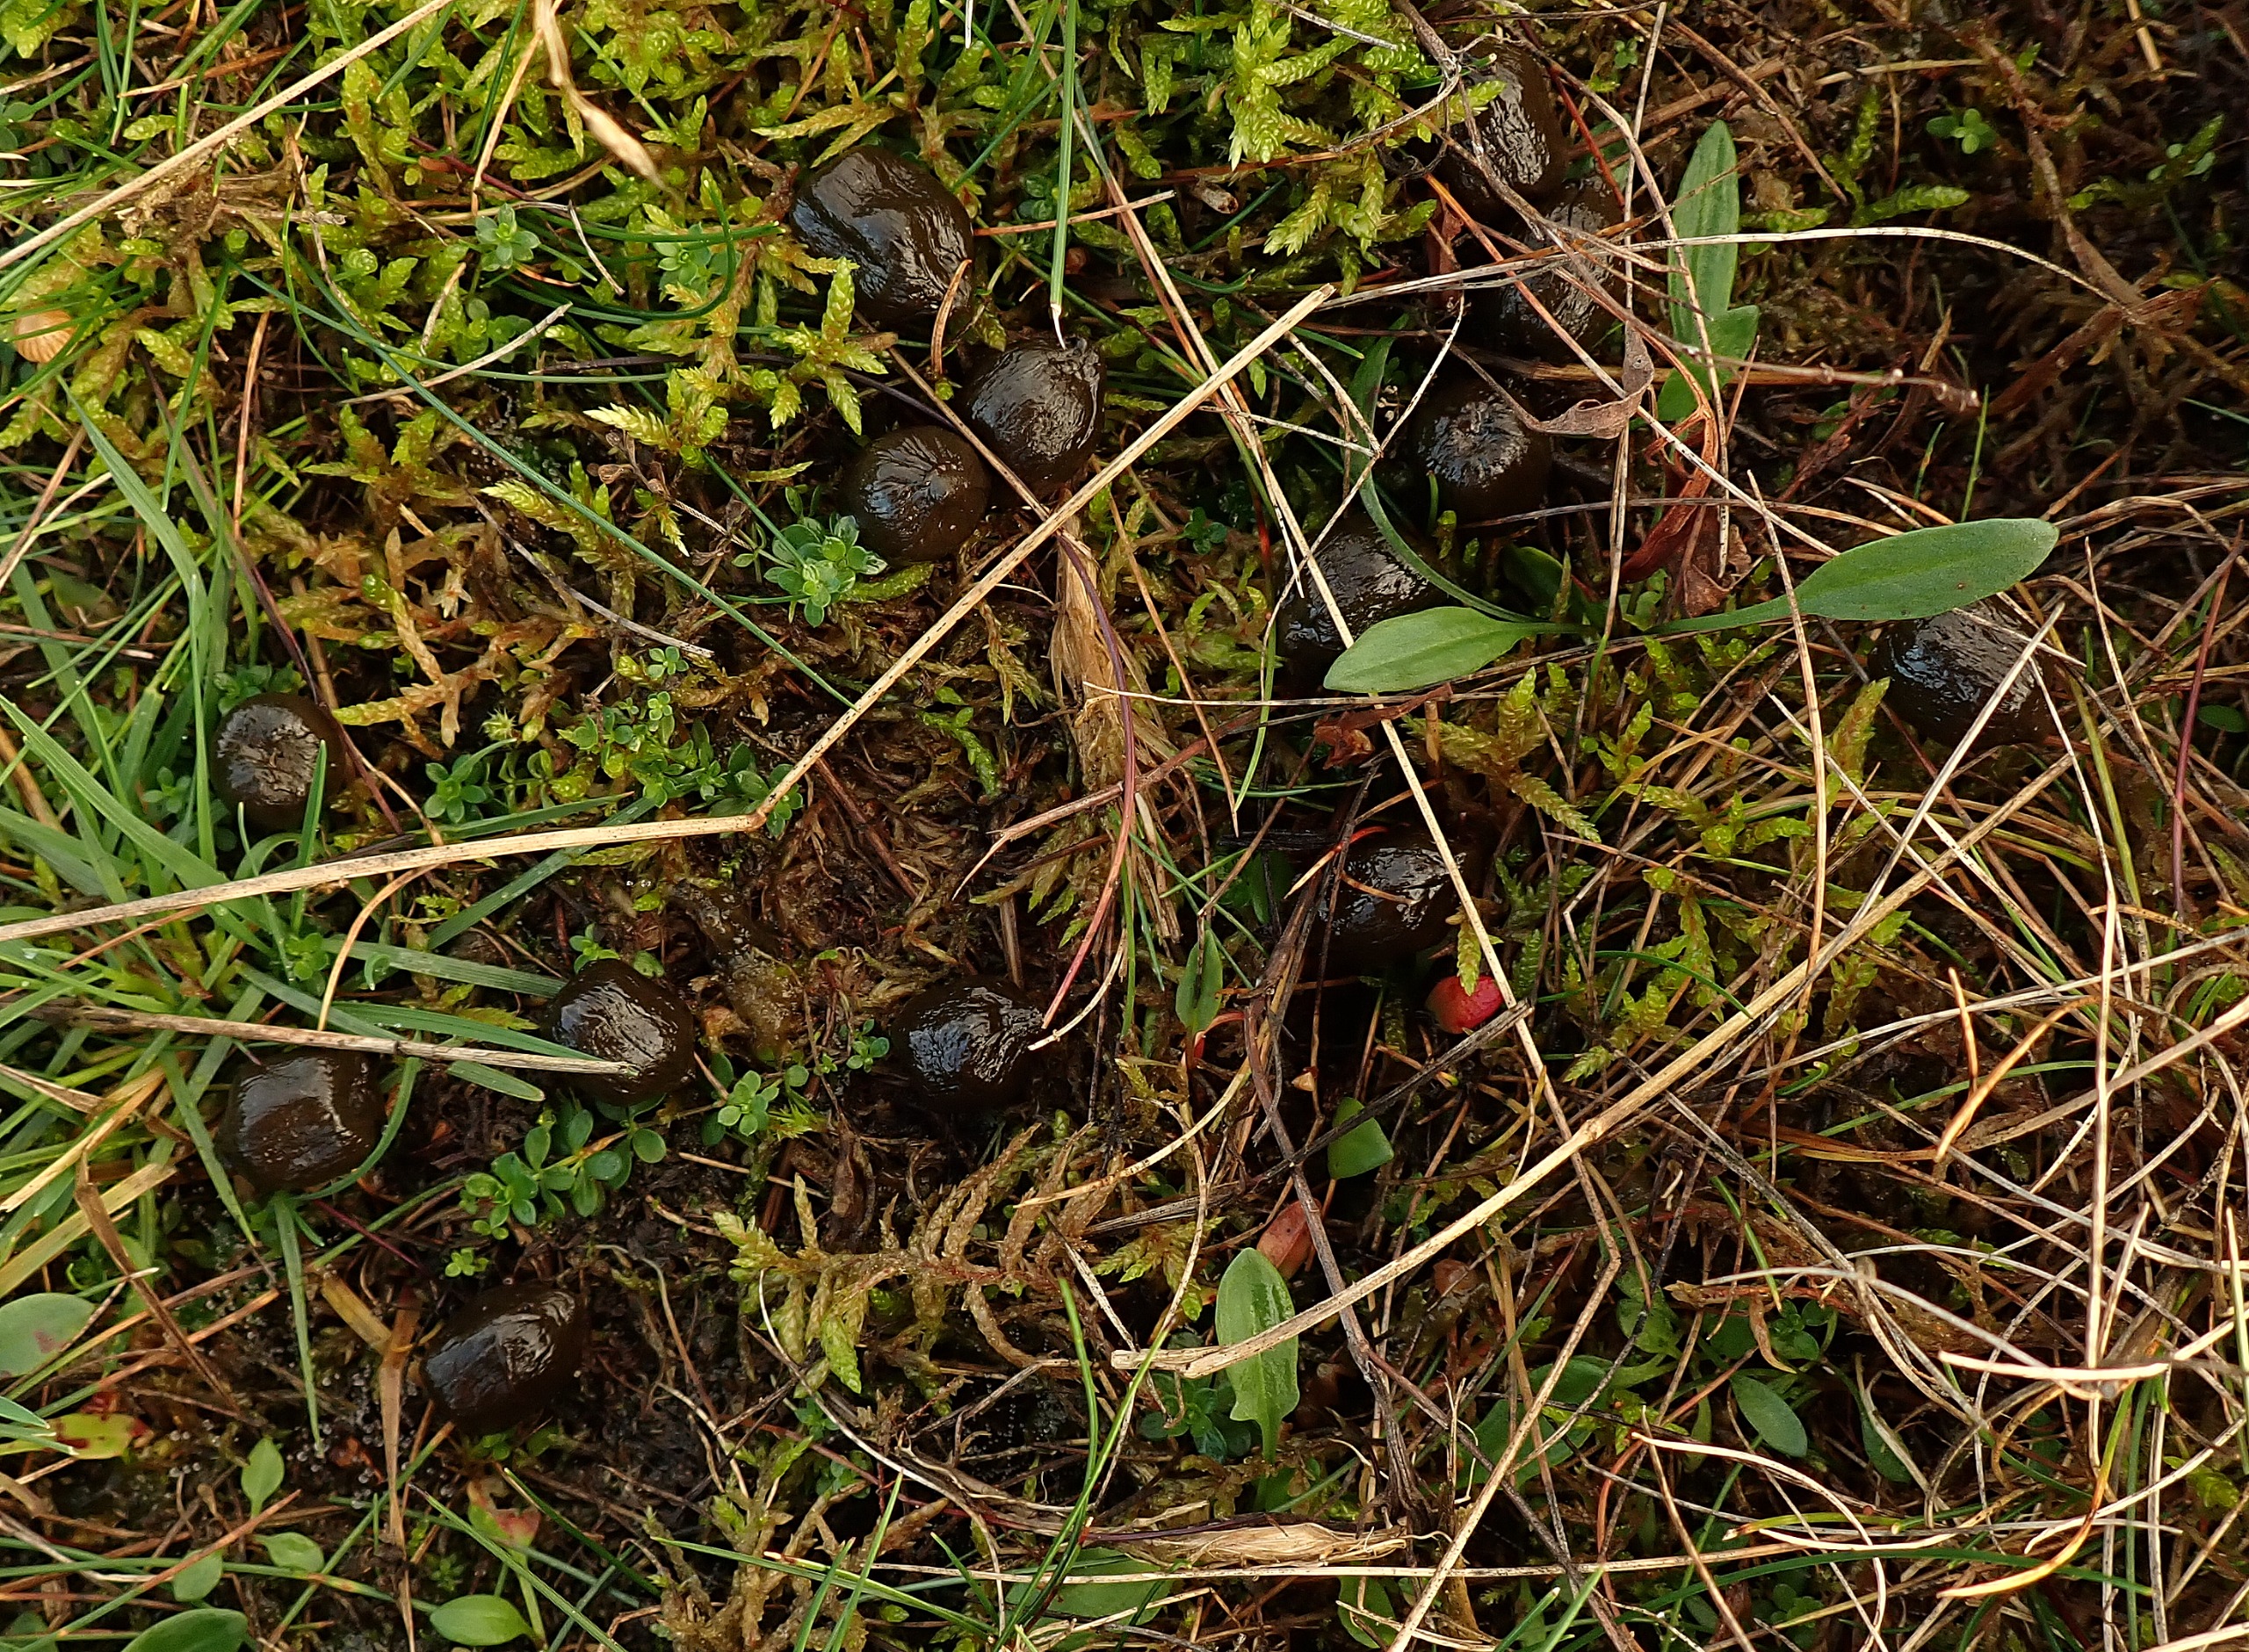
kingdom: Animalia
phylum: Chordata
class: Mammalia
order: Artiodactyla
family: Cervidae
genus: Cervus
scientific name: Cervus elaphus
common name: Krondyr
